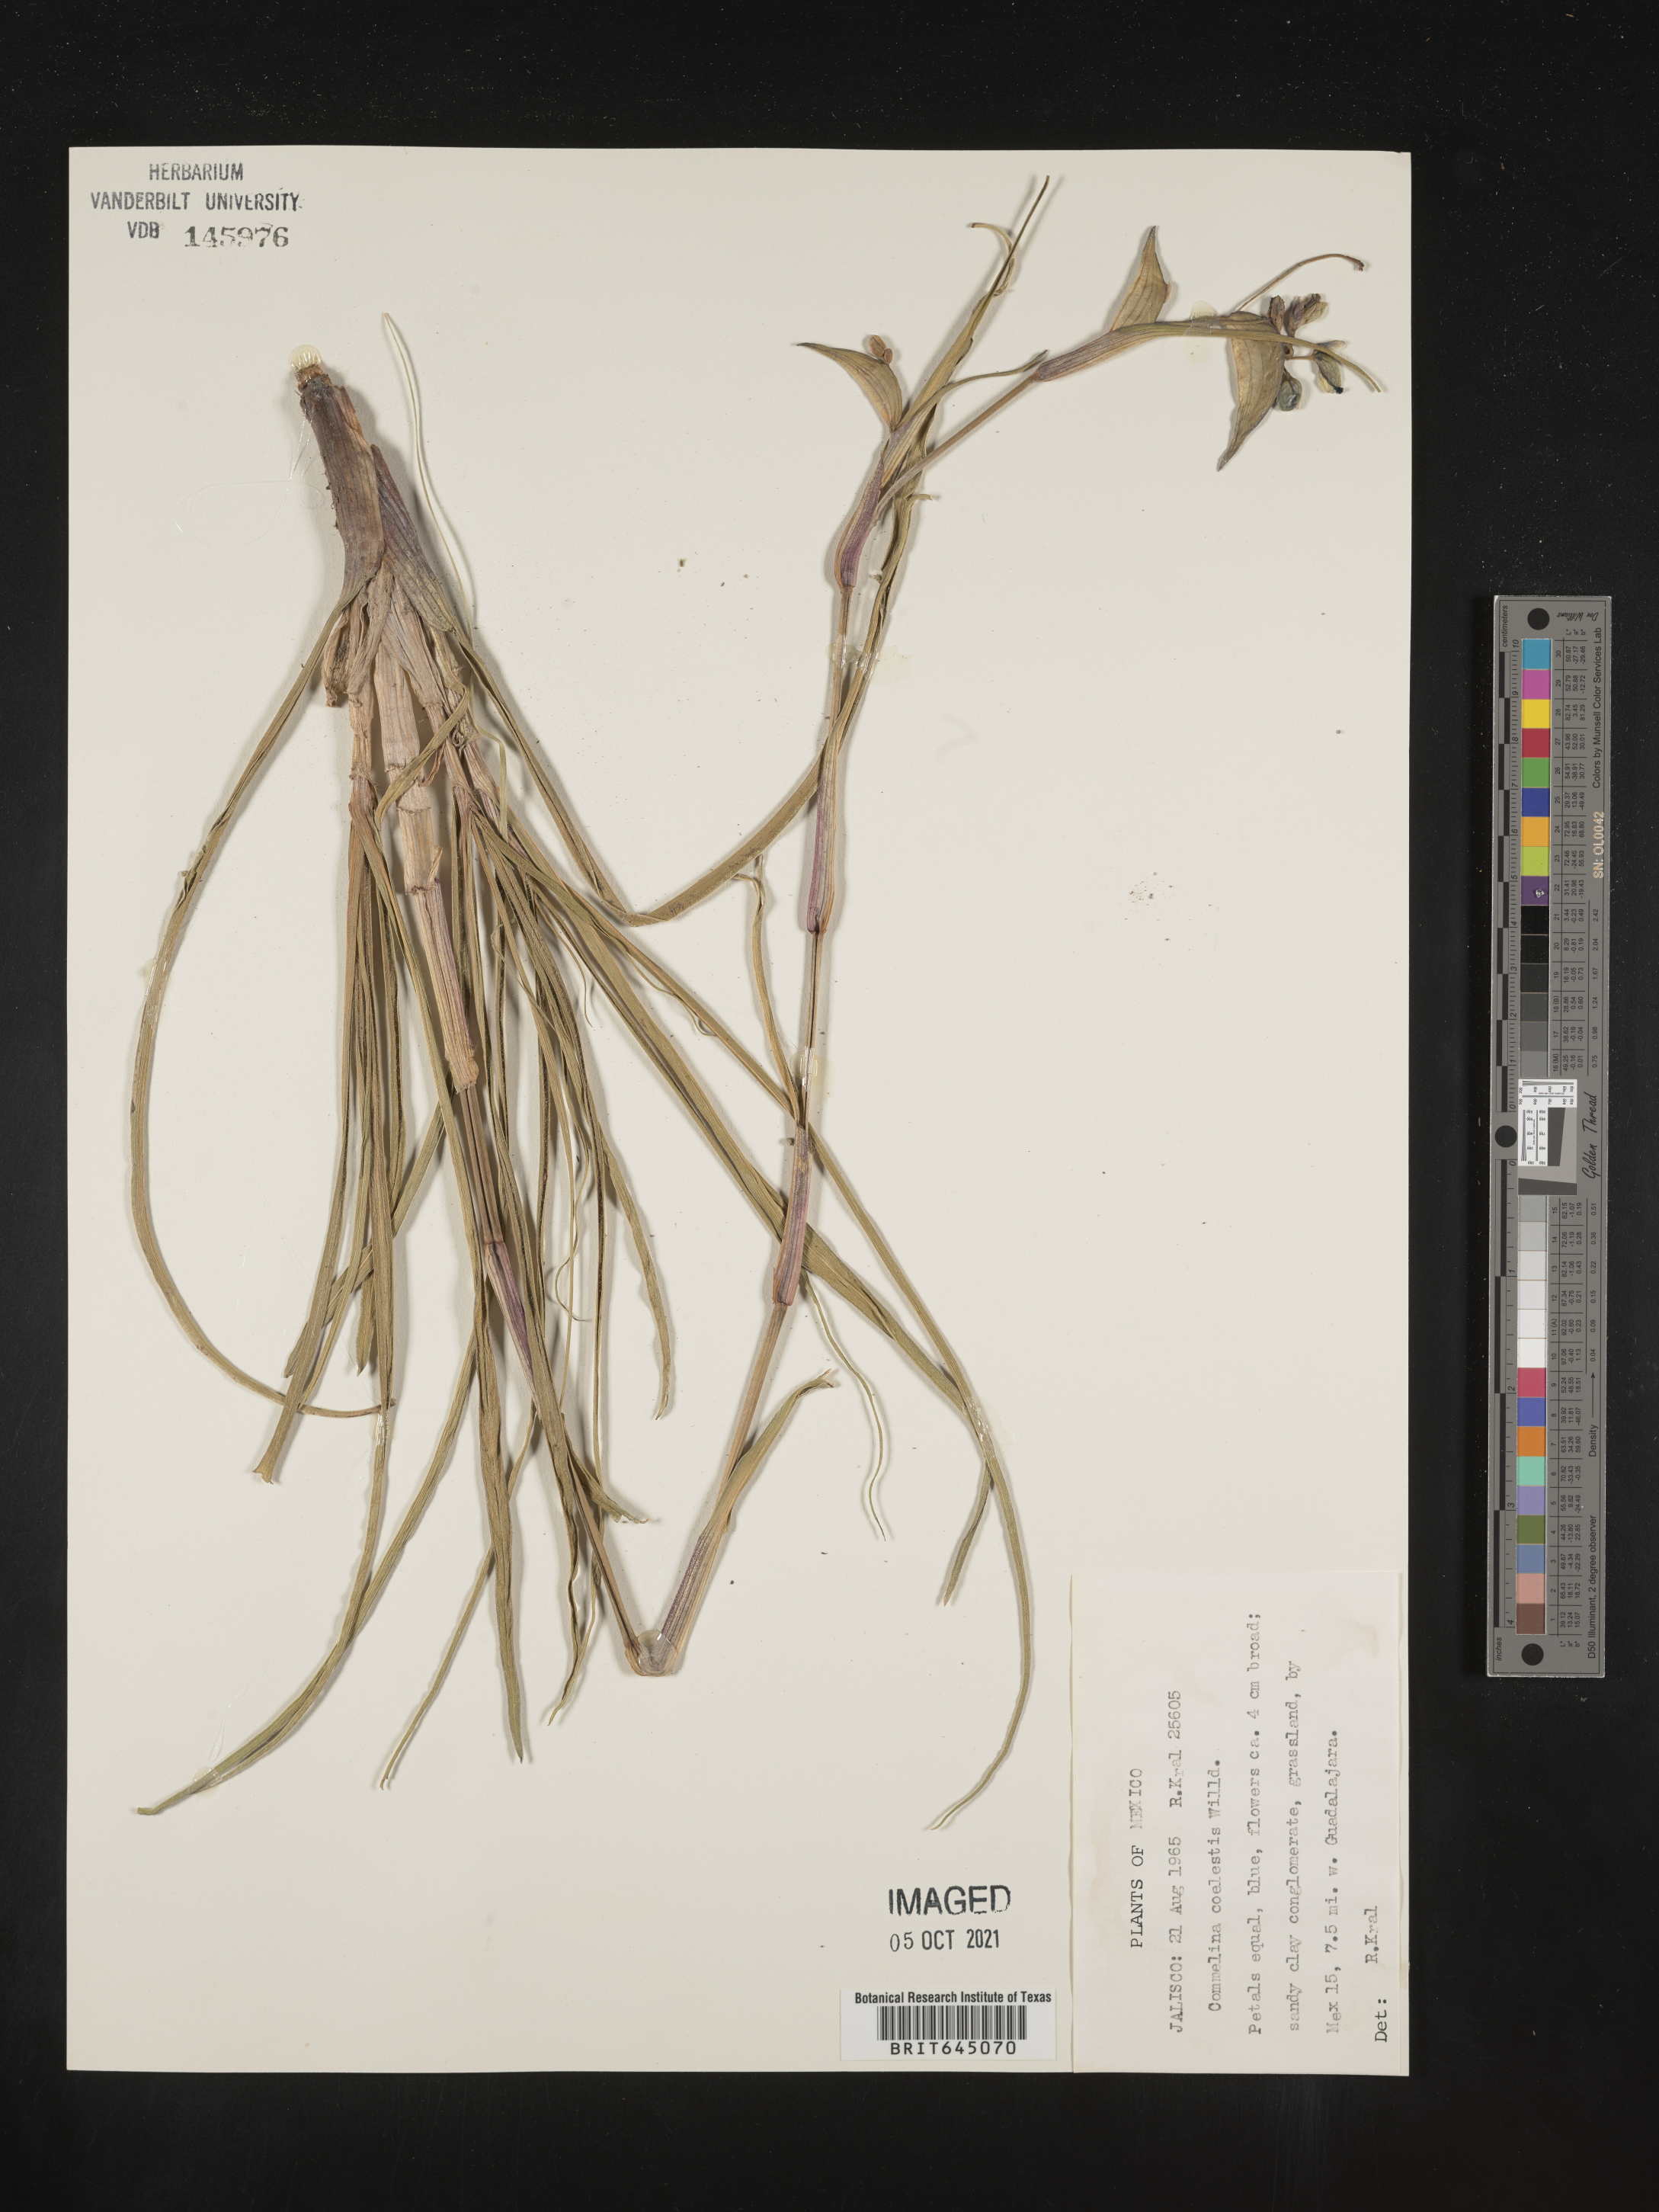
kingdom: Plantae
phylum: Tracheophyta
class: Liliopsida
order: Commelinales
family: Commelinaceae
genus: Commelina
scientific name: Commelina
